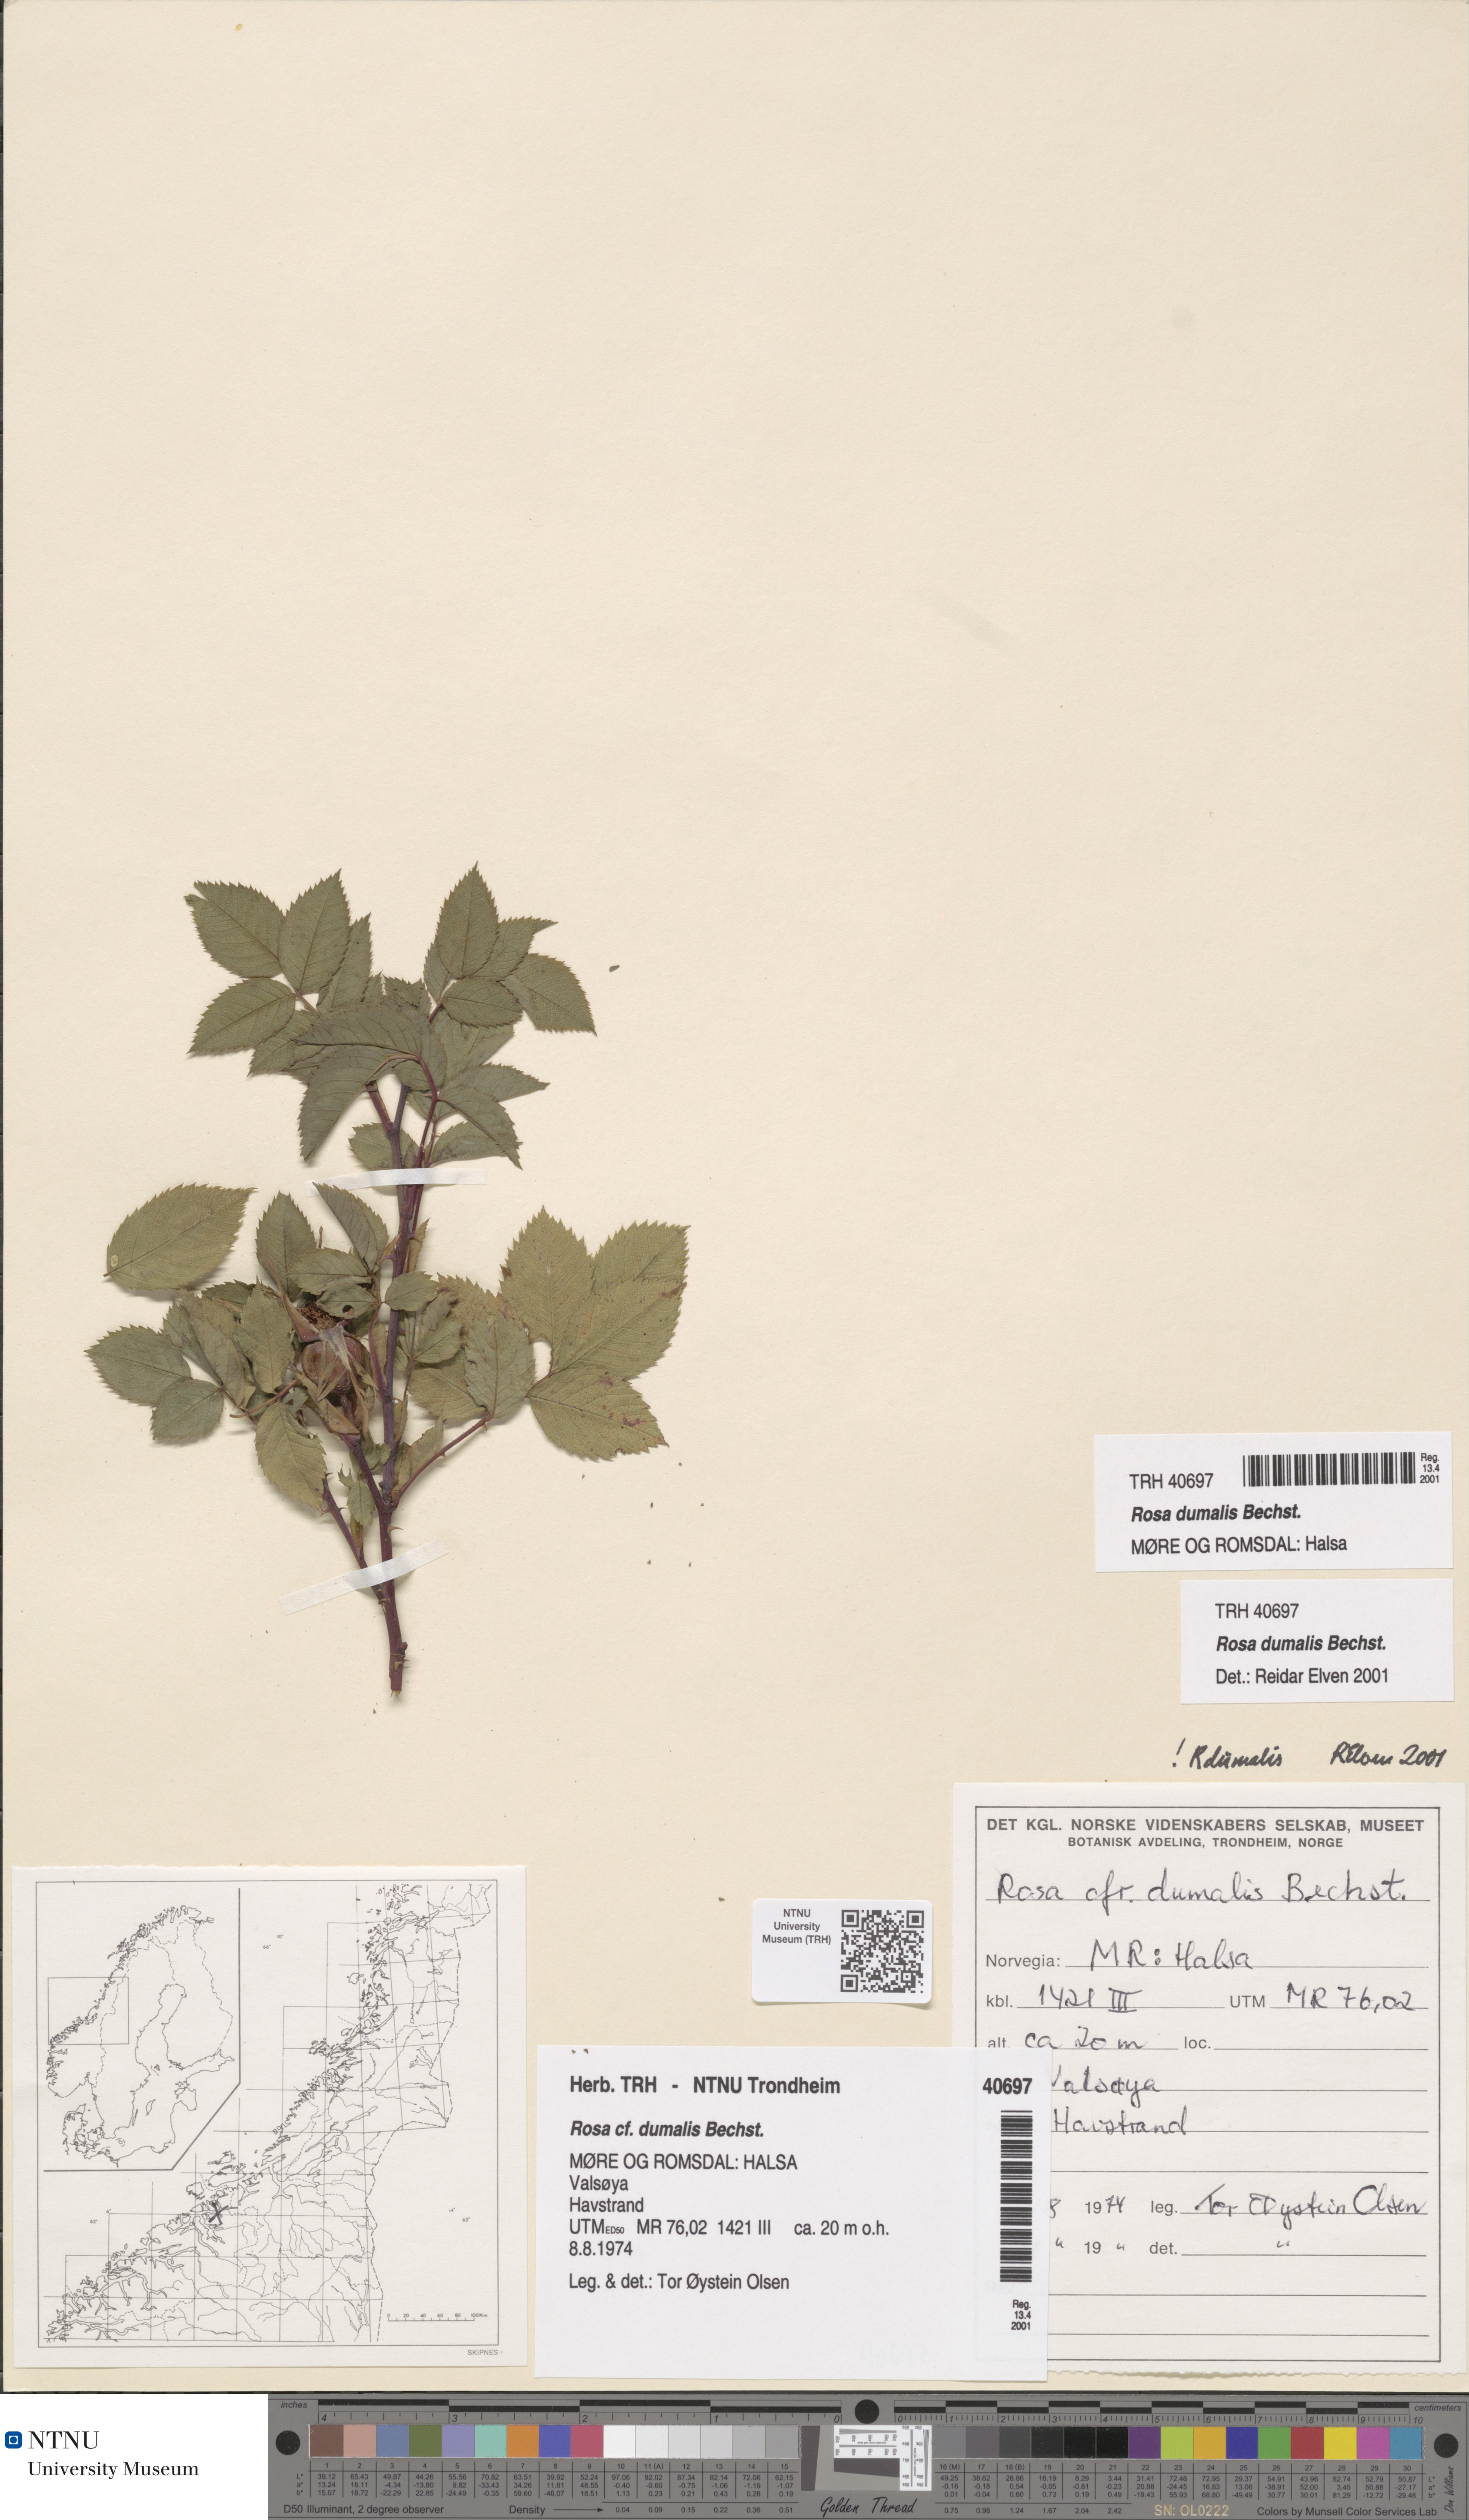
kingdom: Plantae
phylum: Tracheophyta
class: Magnoliopsida
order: Rosales
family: Rosaceae
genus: Rosa
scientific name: Rosa dumalis
